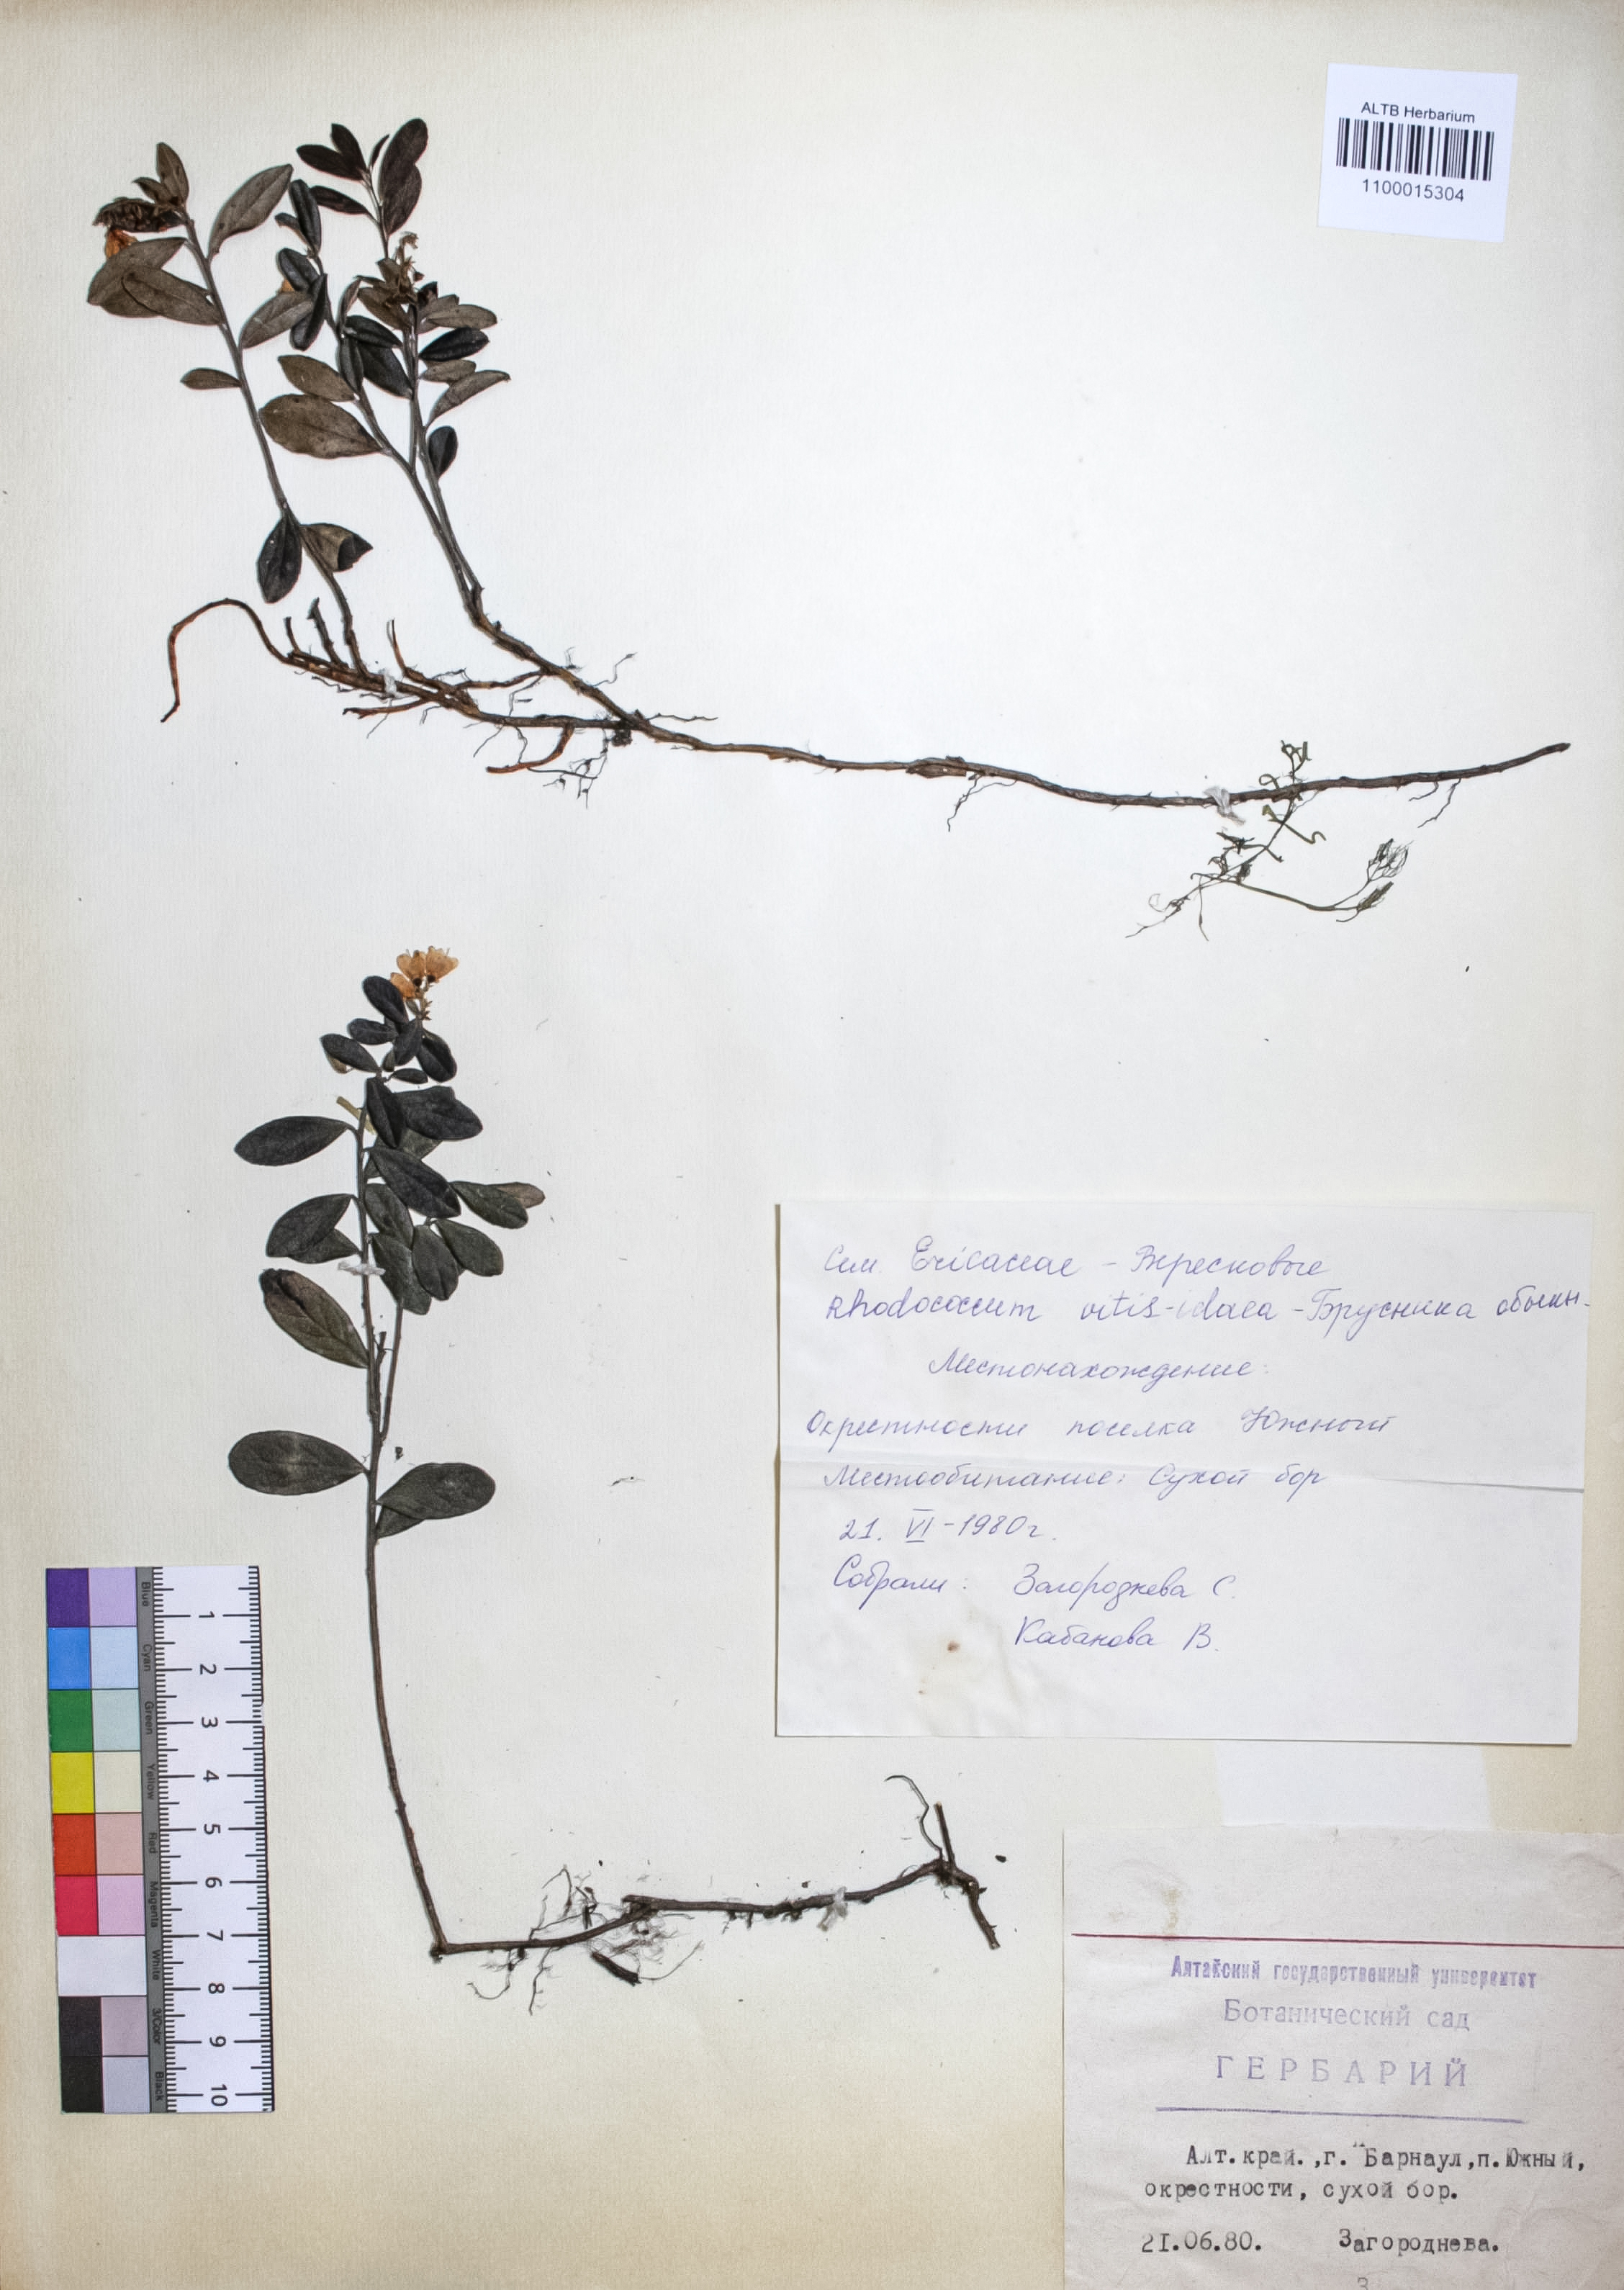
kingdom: Plantae
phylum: Tracheophyta
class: Magnoliopsida
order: Ericales
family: Ericaceae
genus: Vaccinium
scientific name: Vaccinium vitis-idaea
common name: Cowberry
